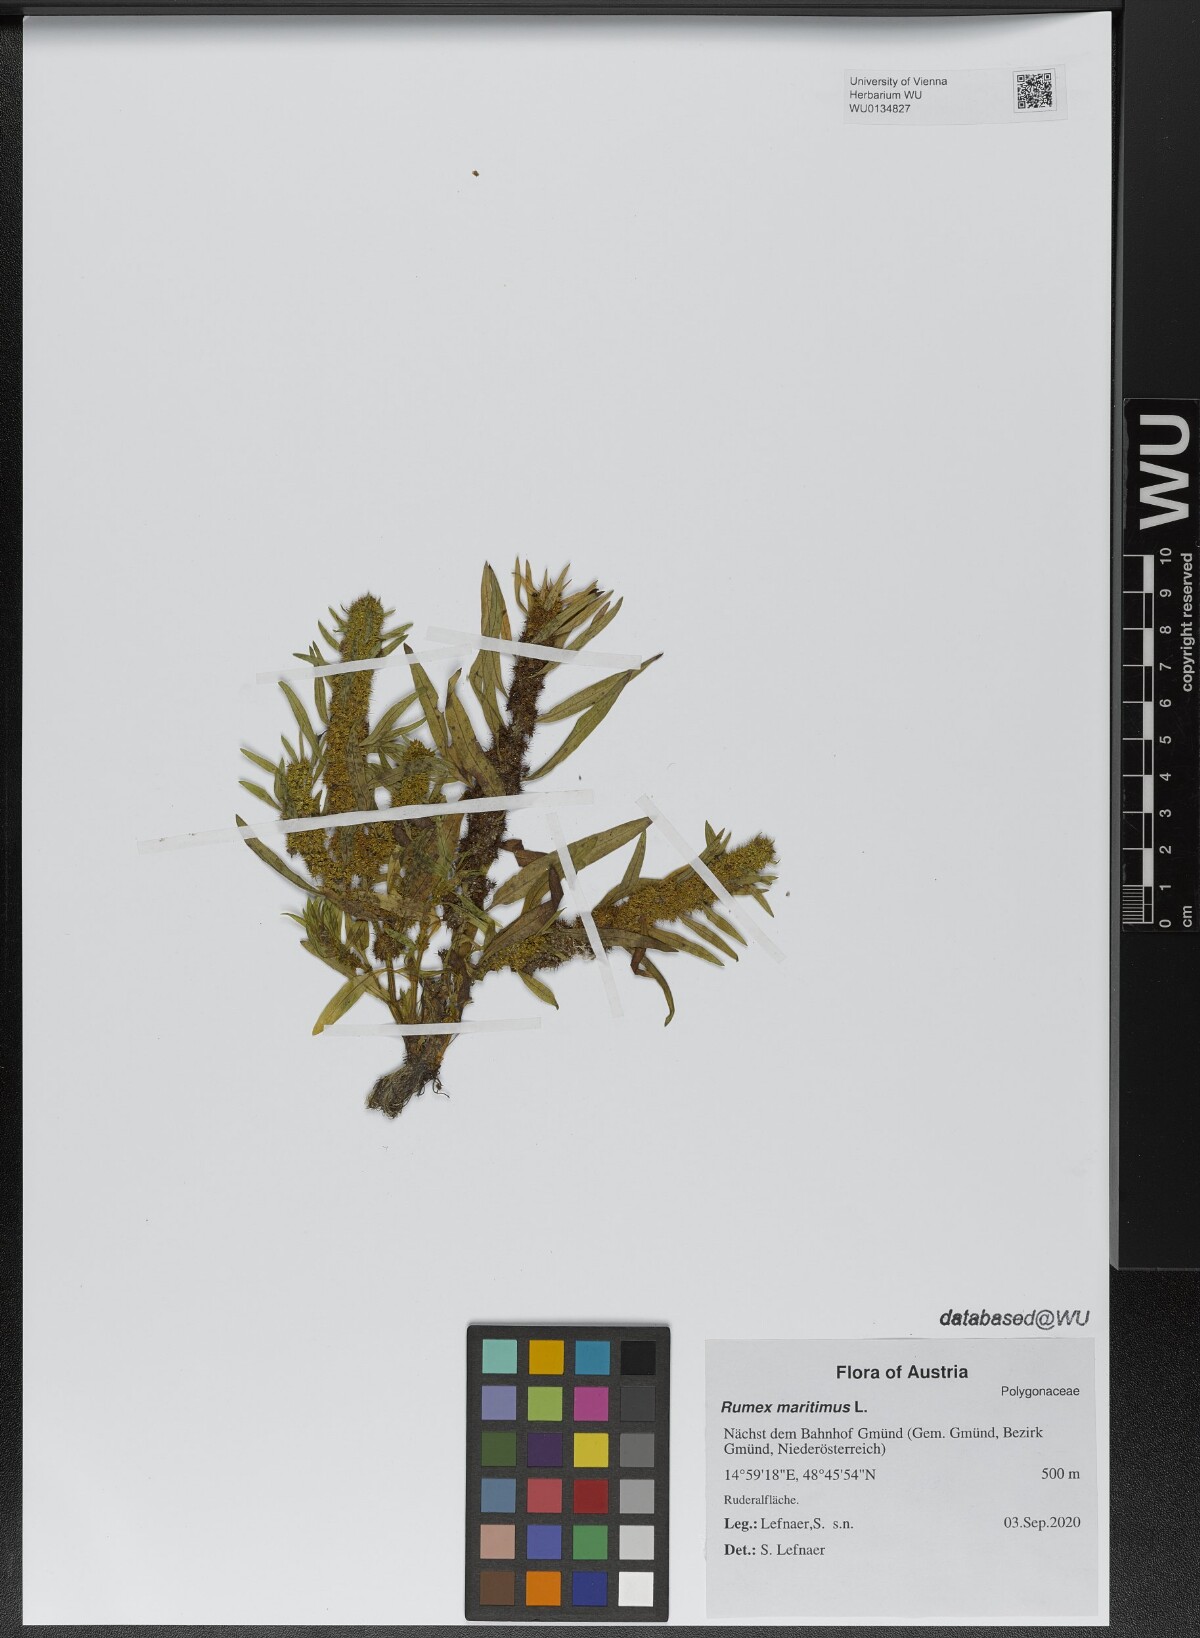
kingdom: Plantae
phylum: Tracheophyta
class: Magnoliopsida
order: Caryophyllales
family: Polygonaceae
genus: Rumex
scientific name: Rumex maritimus
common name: Golden dock
